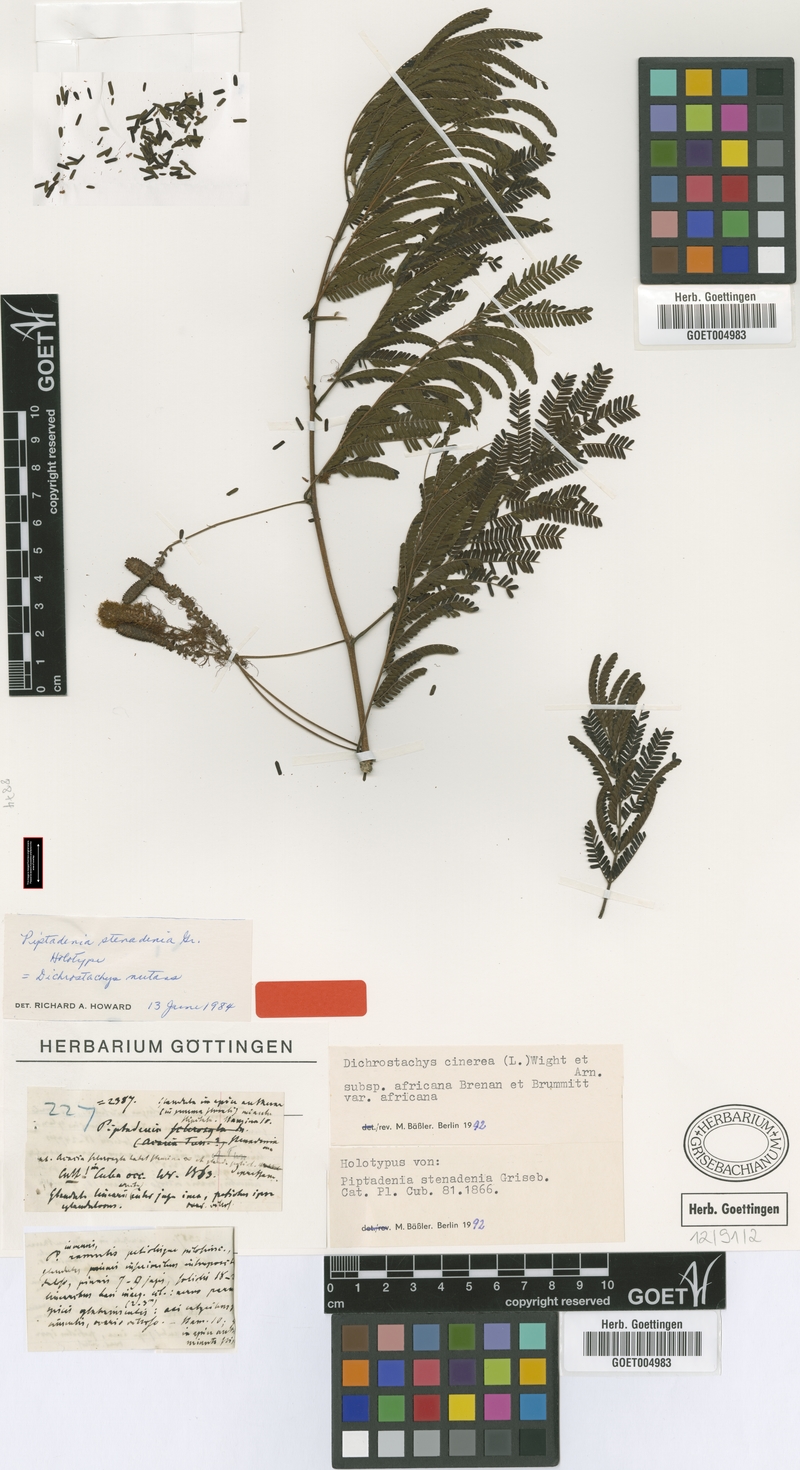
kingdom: Plantae
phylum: Tracheophyta
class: Magnoliopsida
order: Fabales
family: Fabaceae
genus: Dichrostachys
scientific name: Dichrostachys cinerea
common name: Sicklebush
